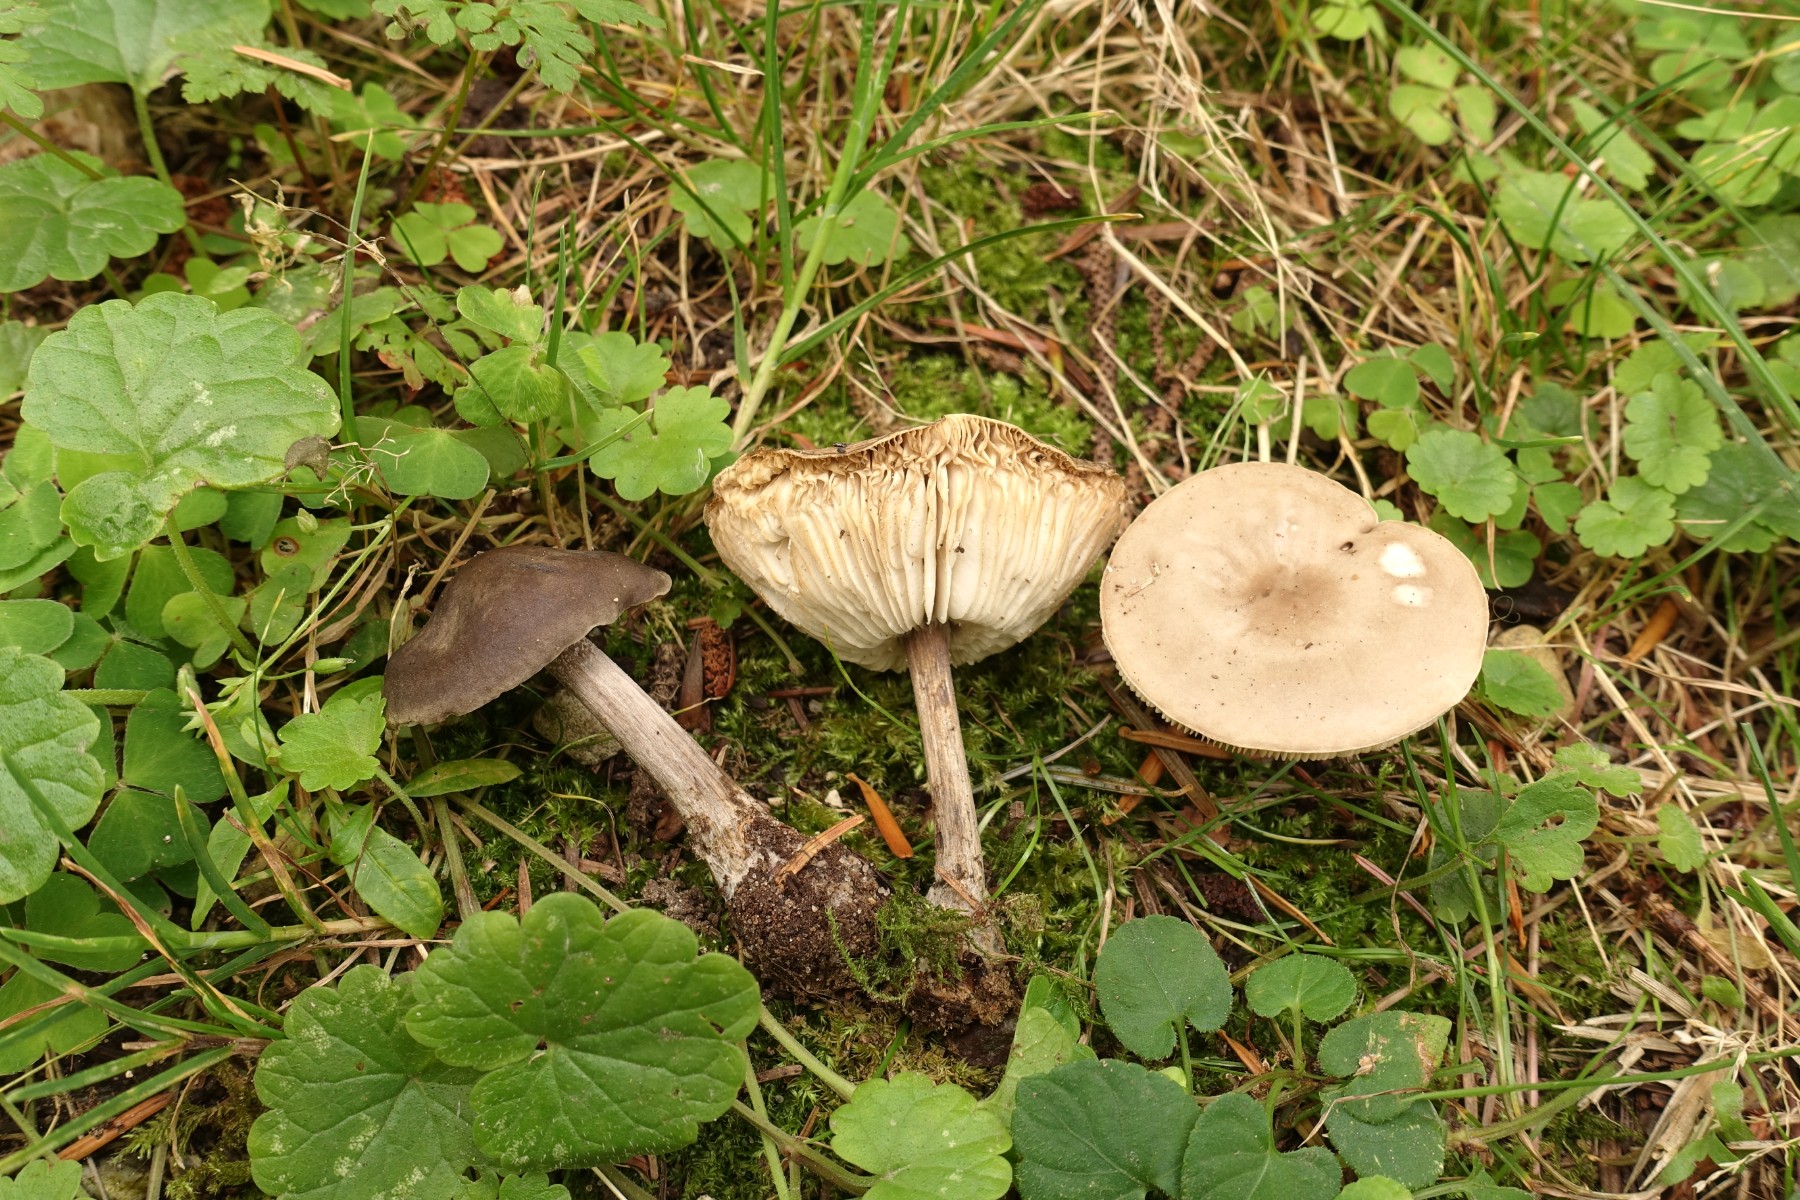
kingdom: Fungi
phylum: Basidiomycota
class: Agaricomycetes
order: Agaricales
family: Tricholomataceae
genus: Melanoleuca
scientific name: Melanoleuca polioleuca
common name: almindelig munkehat
